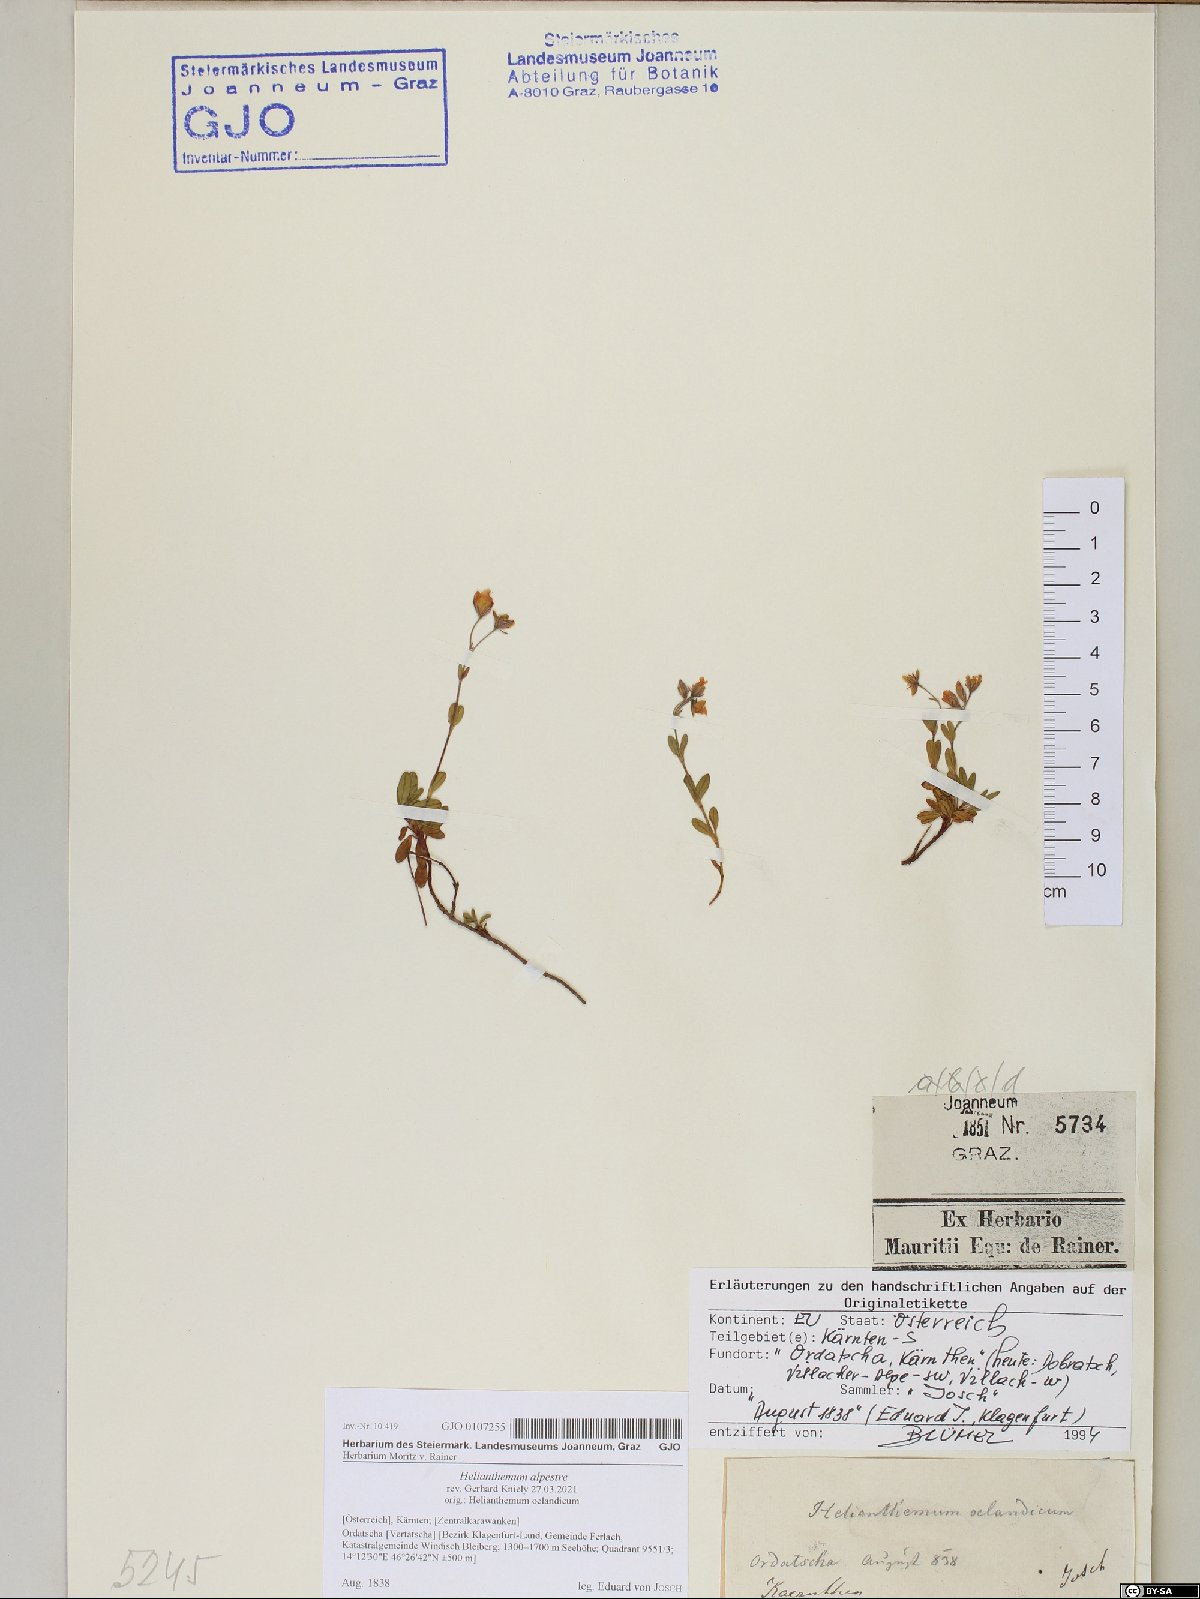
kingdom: Plantae
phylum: Tracheophyta
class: Magnoliopsida
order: Malvales
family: Cistaceae
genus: Helianthemum
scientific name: Helianthemum alpestre
